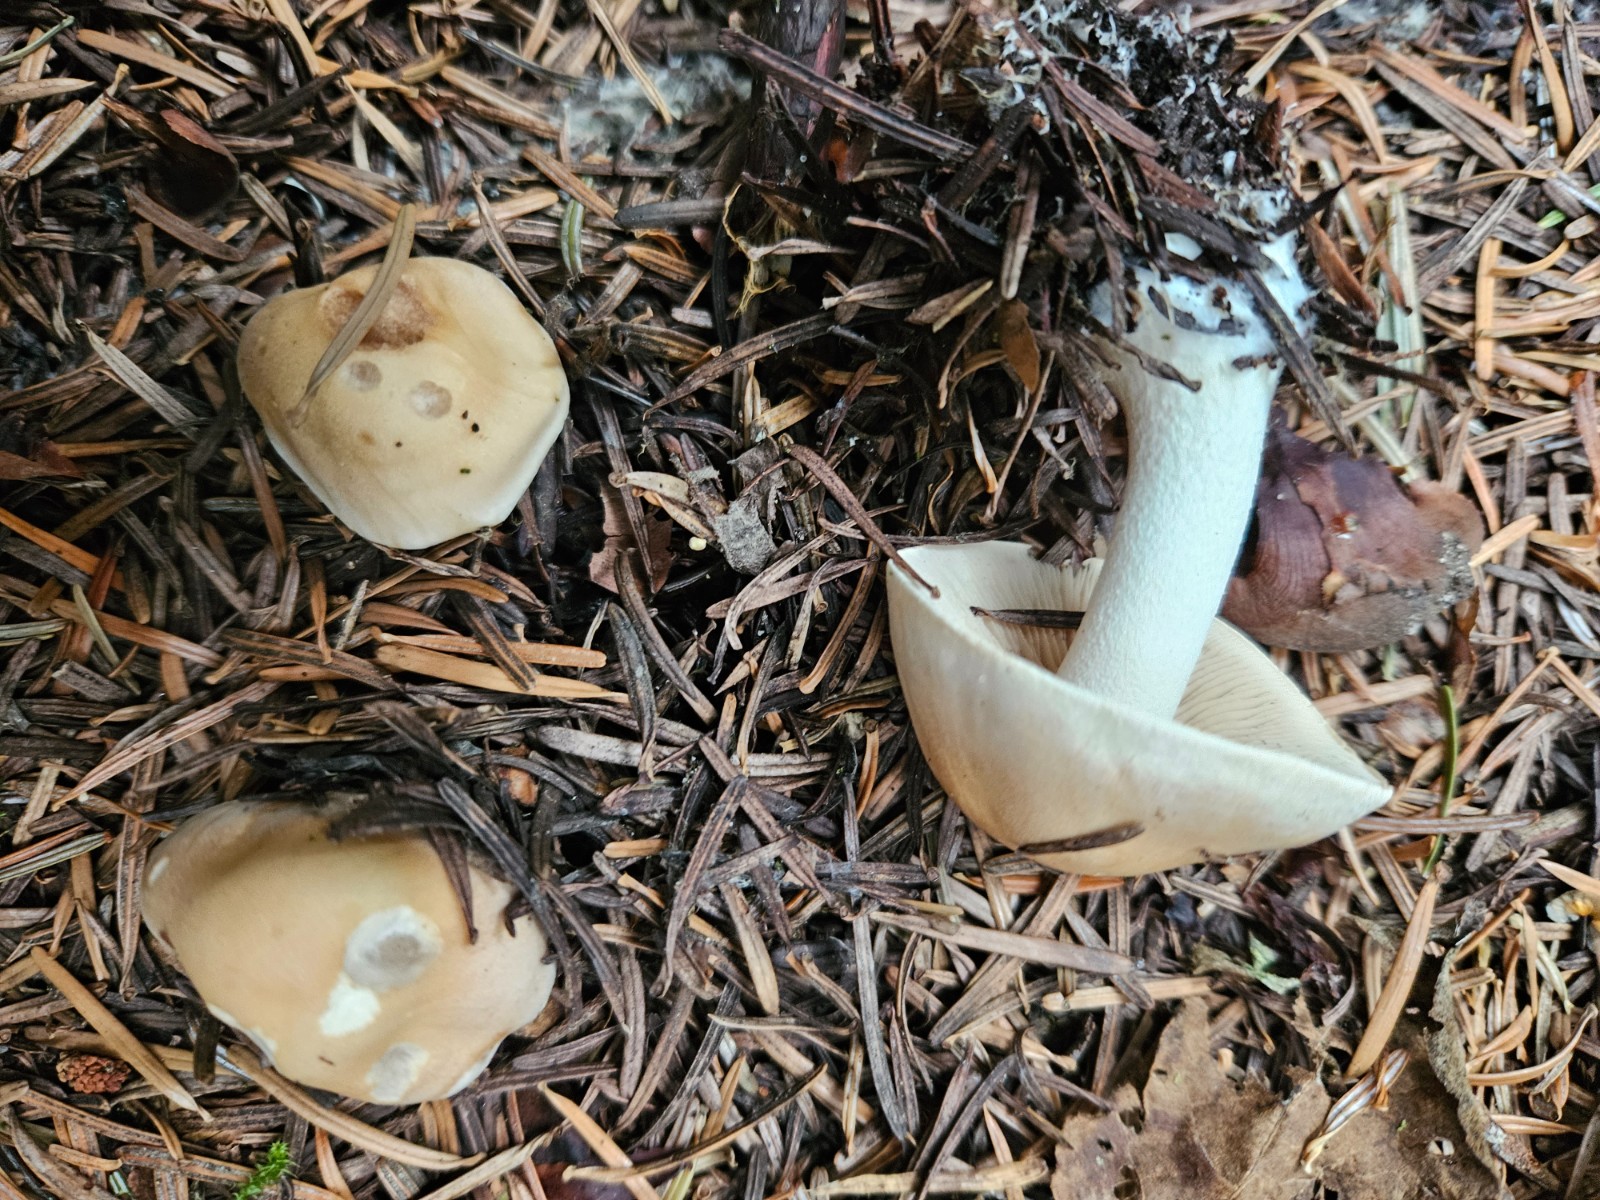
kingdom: Fungi
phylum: Basidiomycota
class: Agaricomycetes
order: Agaricales
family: Hymenogastraceae
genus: Hebeloma
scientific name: Hebeloma
